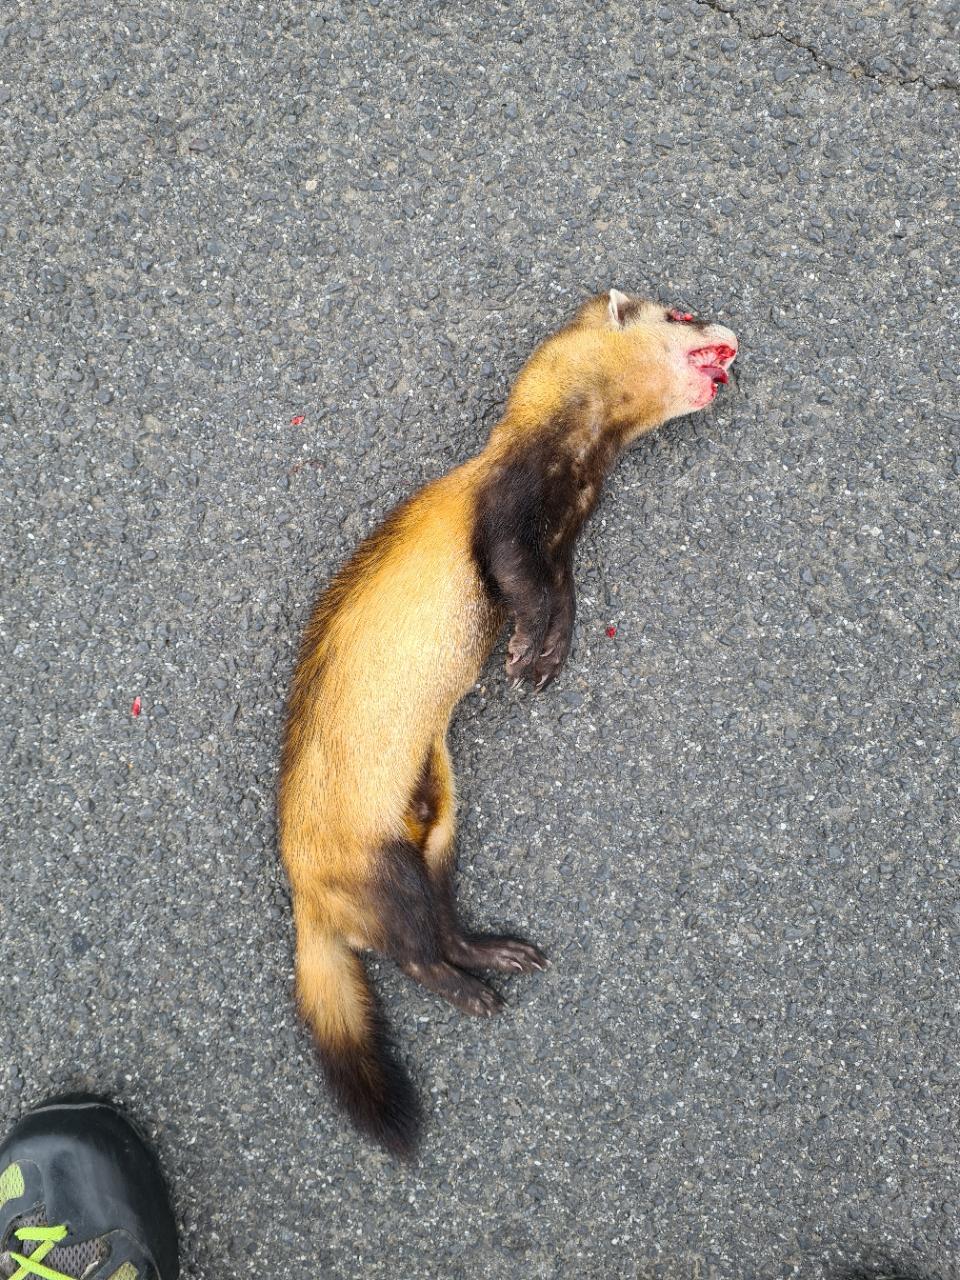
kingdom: Animalia
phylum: Chordata
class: Mammalia
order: Carnivora
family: Mustelidae
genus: Mustela
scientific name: Mustela eversmanii
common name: Steppe polecat
